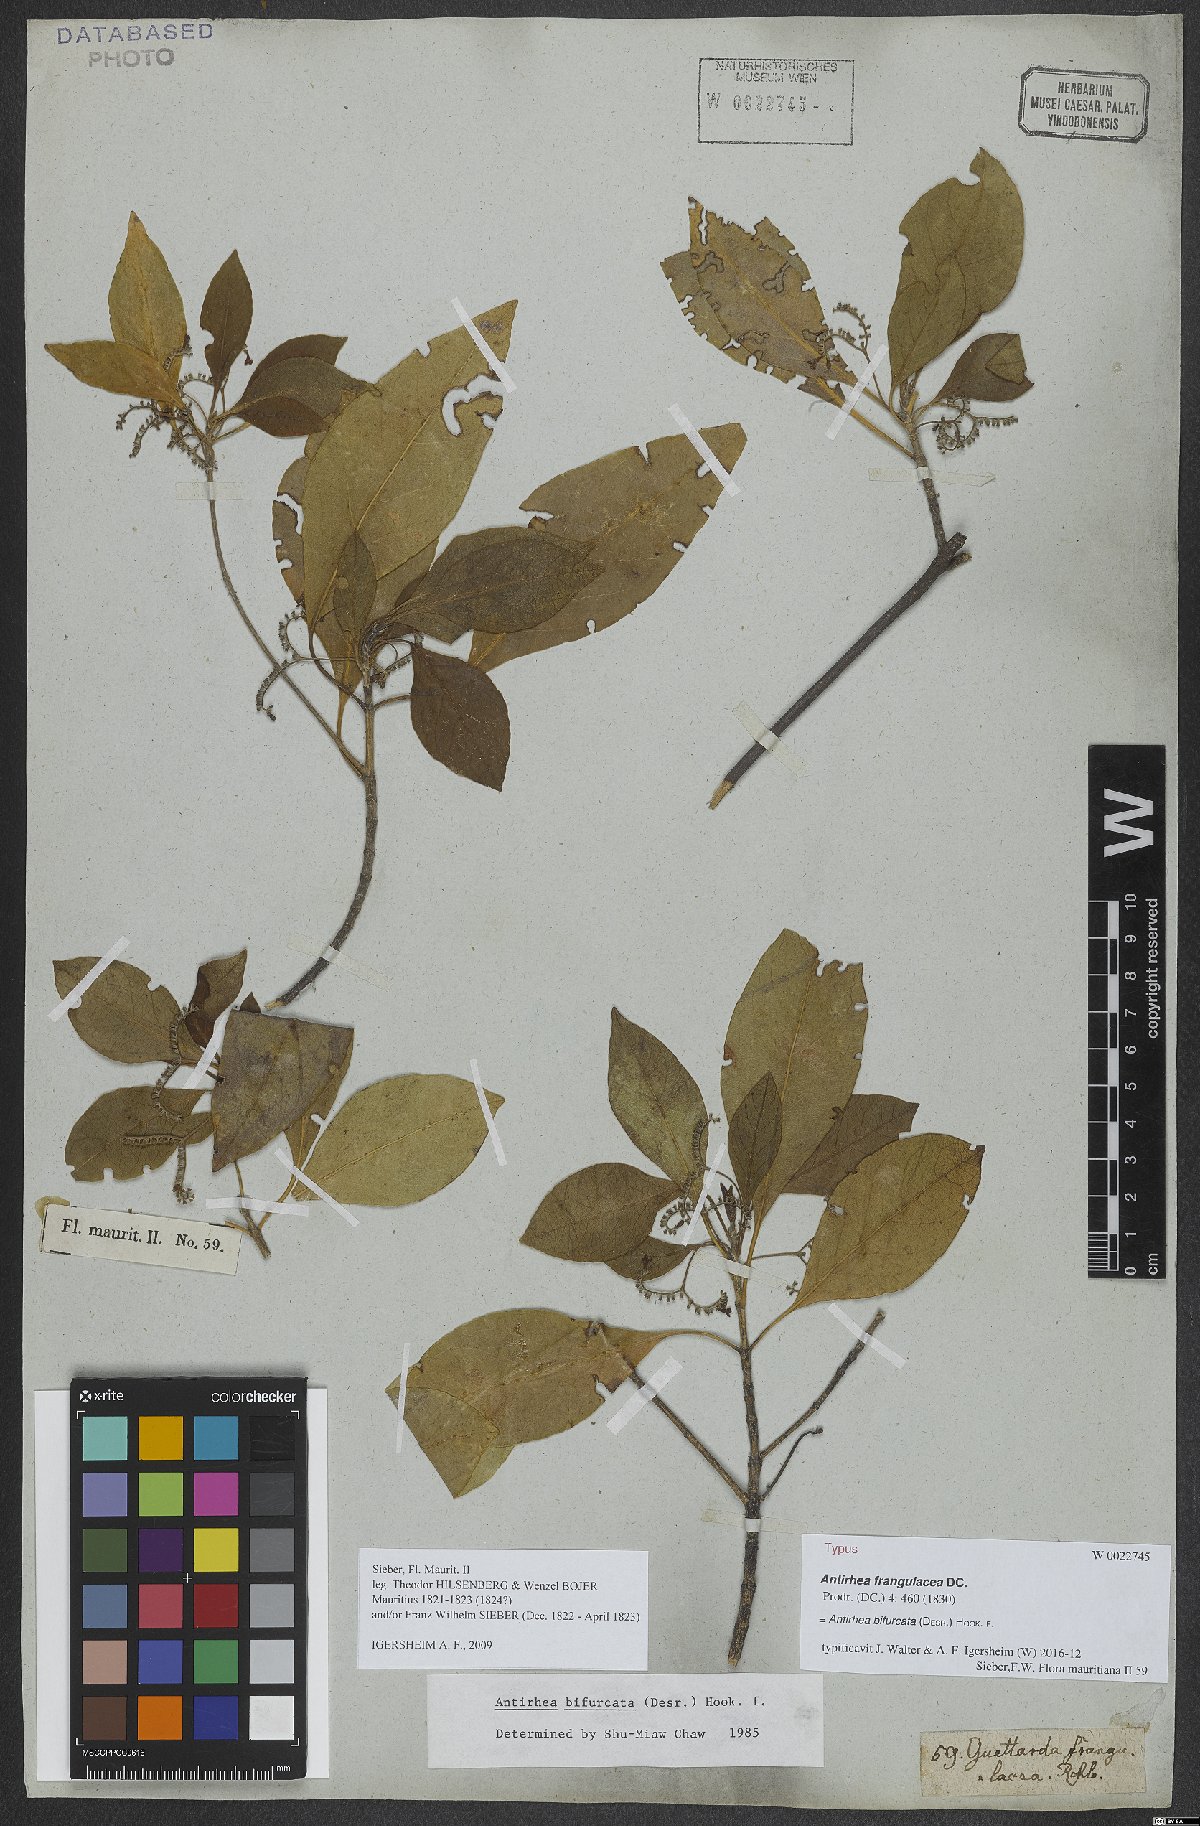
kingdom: Plantae
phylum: Tracheophyta
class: Magnoliopsida
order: Gentianales
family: Rubiaceae
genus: Antirhea
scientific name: Antirhea bifurcata
